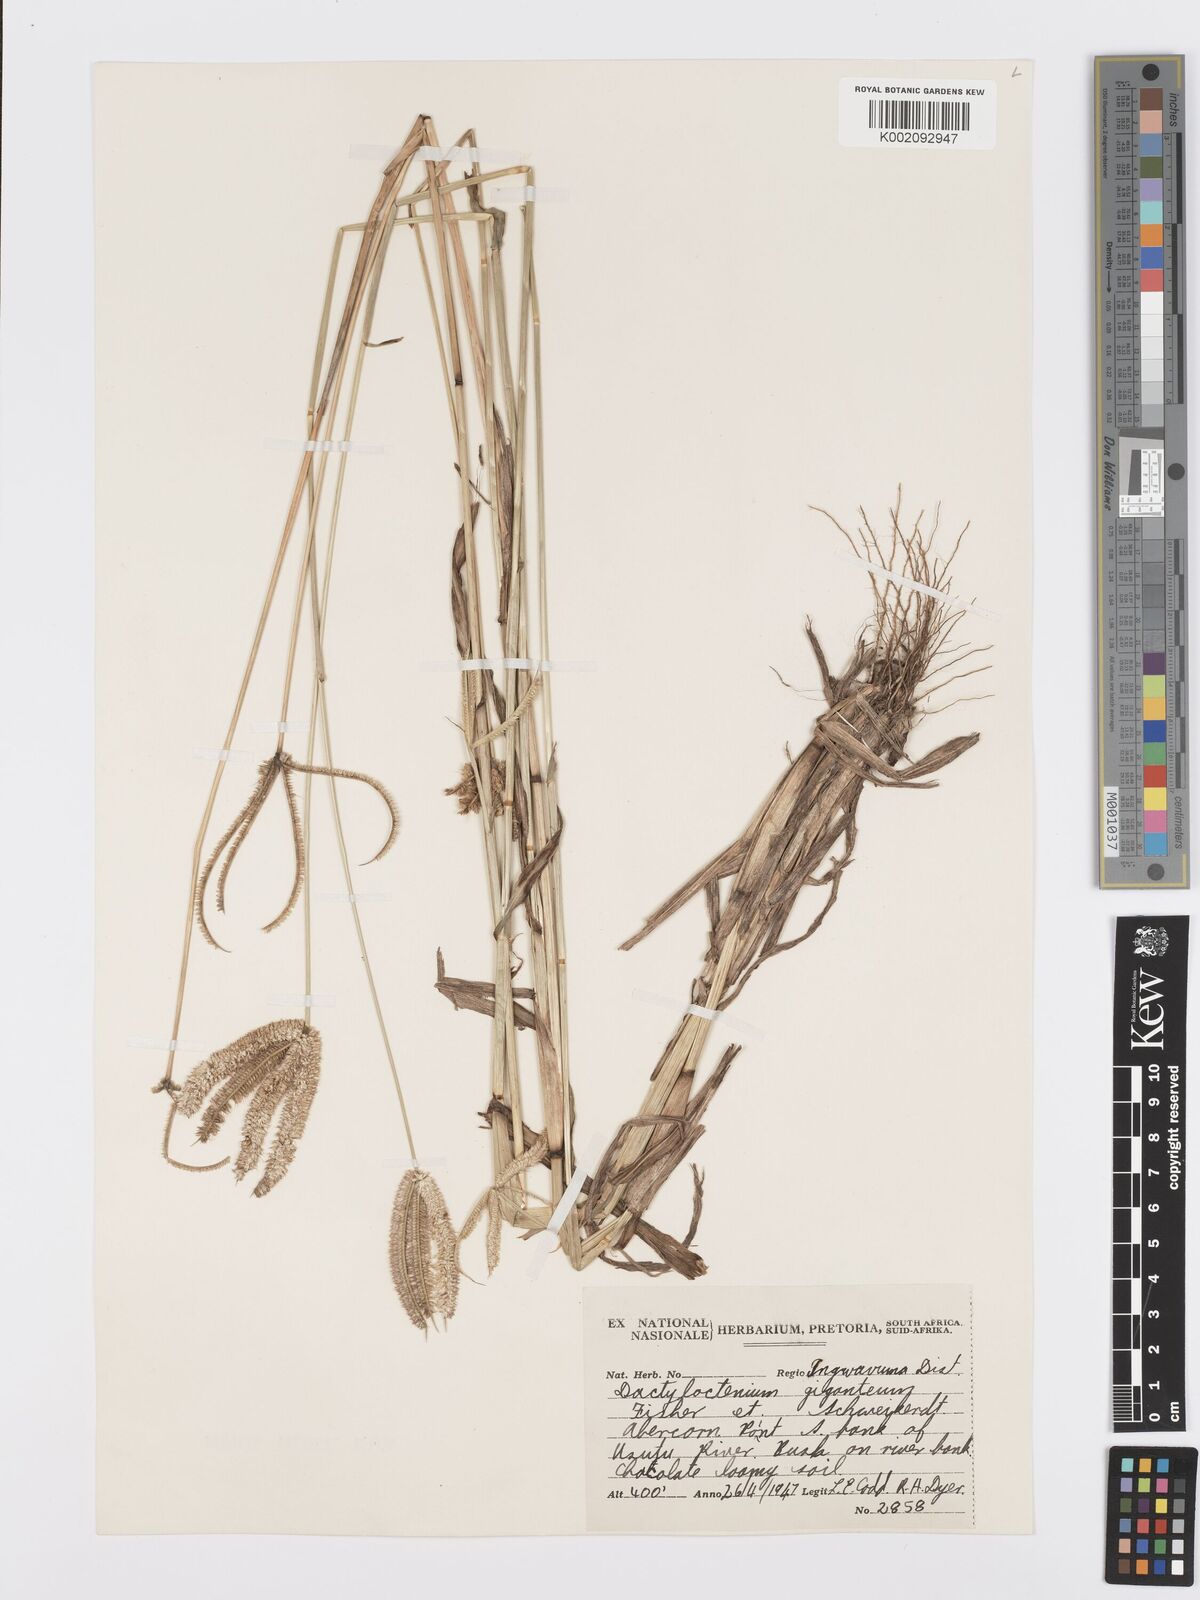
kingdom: Plantae
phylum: Tracheophyta
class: Liliopsida
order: Poales
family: Poaceae
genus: Dactyloctenium
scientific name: Dactyloctenium giganteum
